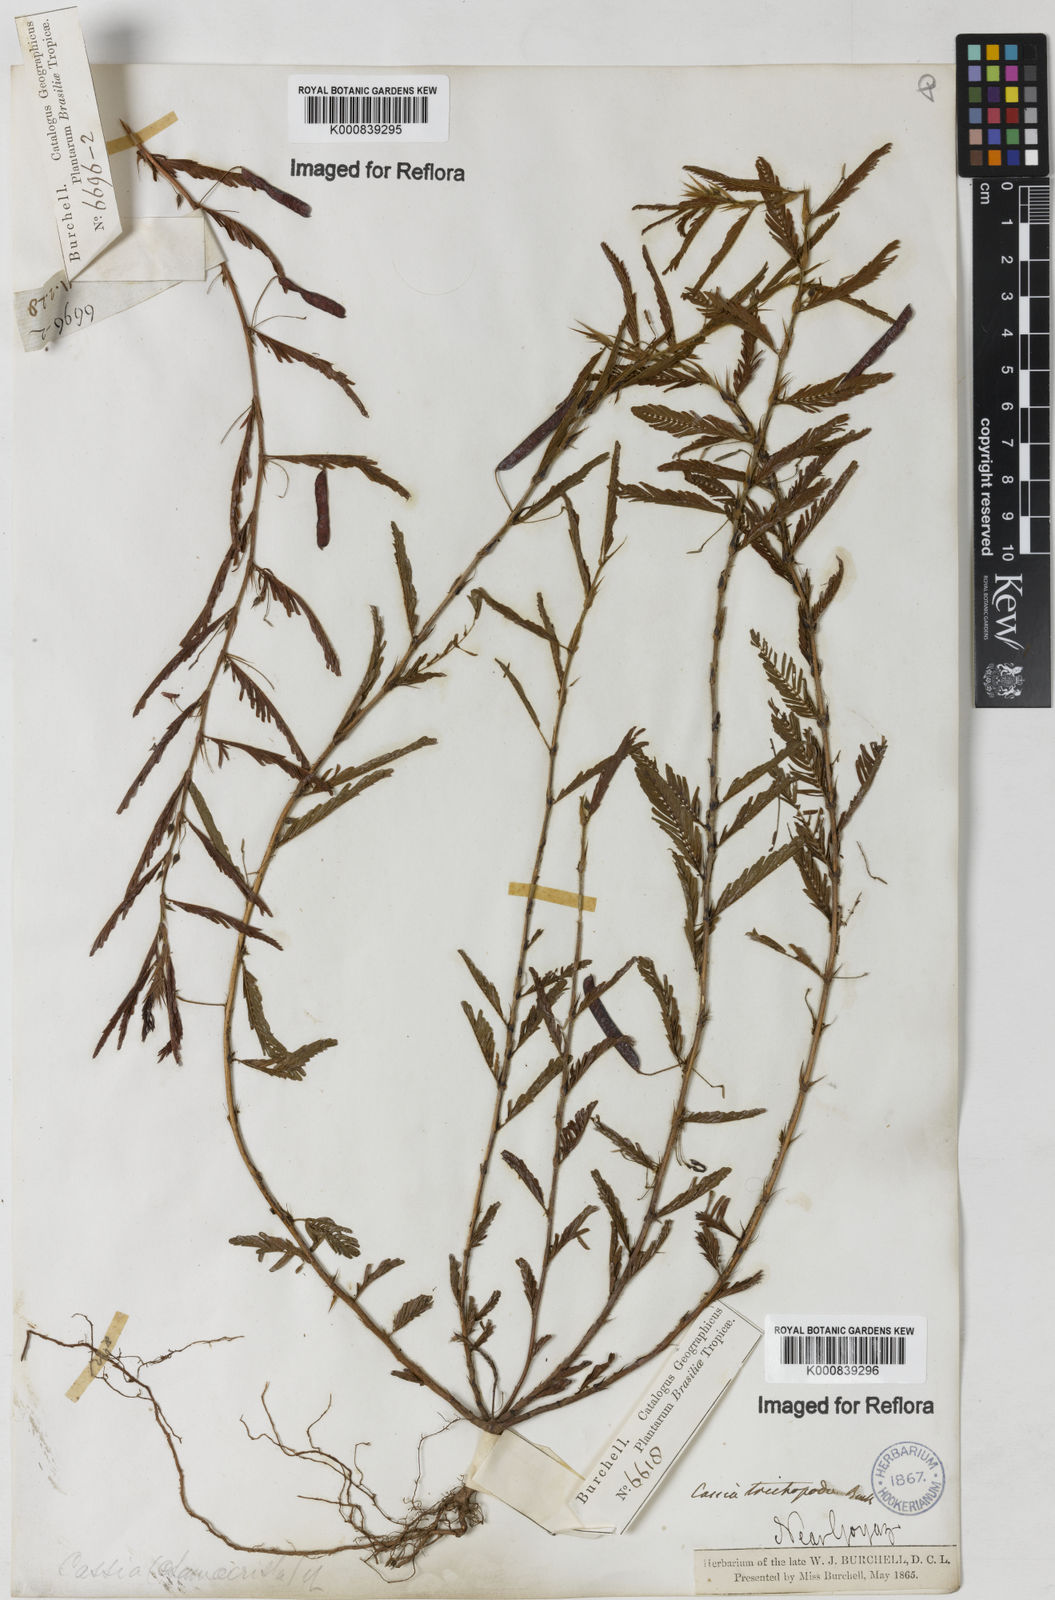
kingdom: Plantae
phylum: Tracheophyta
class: Magnoliopsida
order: Fabales
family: Fabaceae
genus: Chamaecrista
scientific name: Chamaecrista trichopoda
